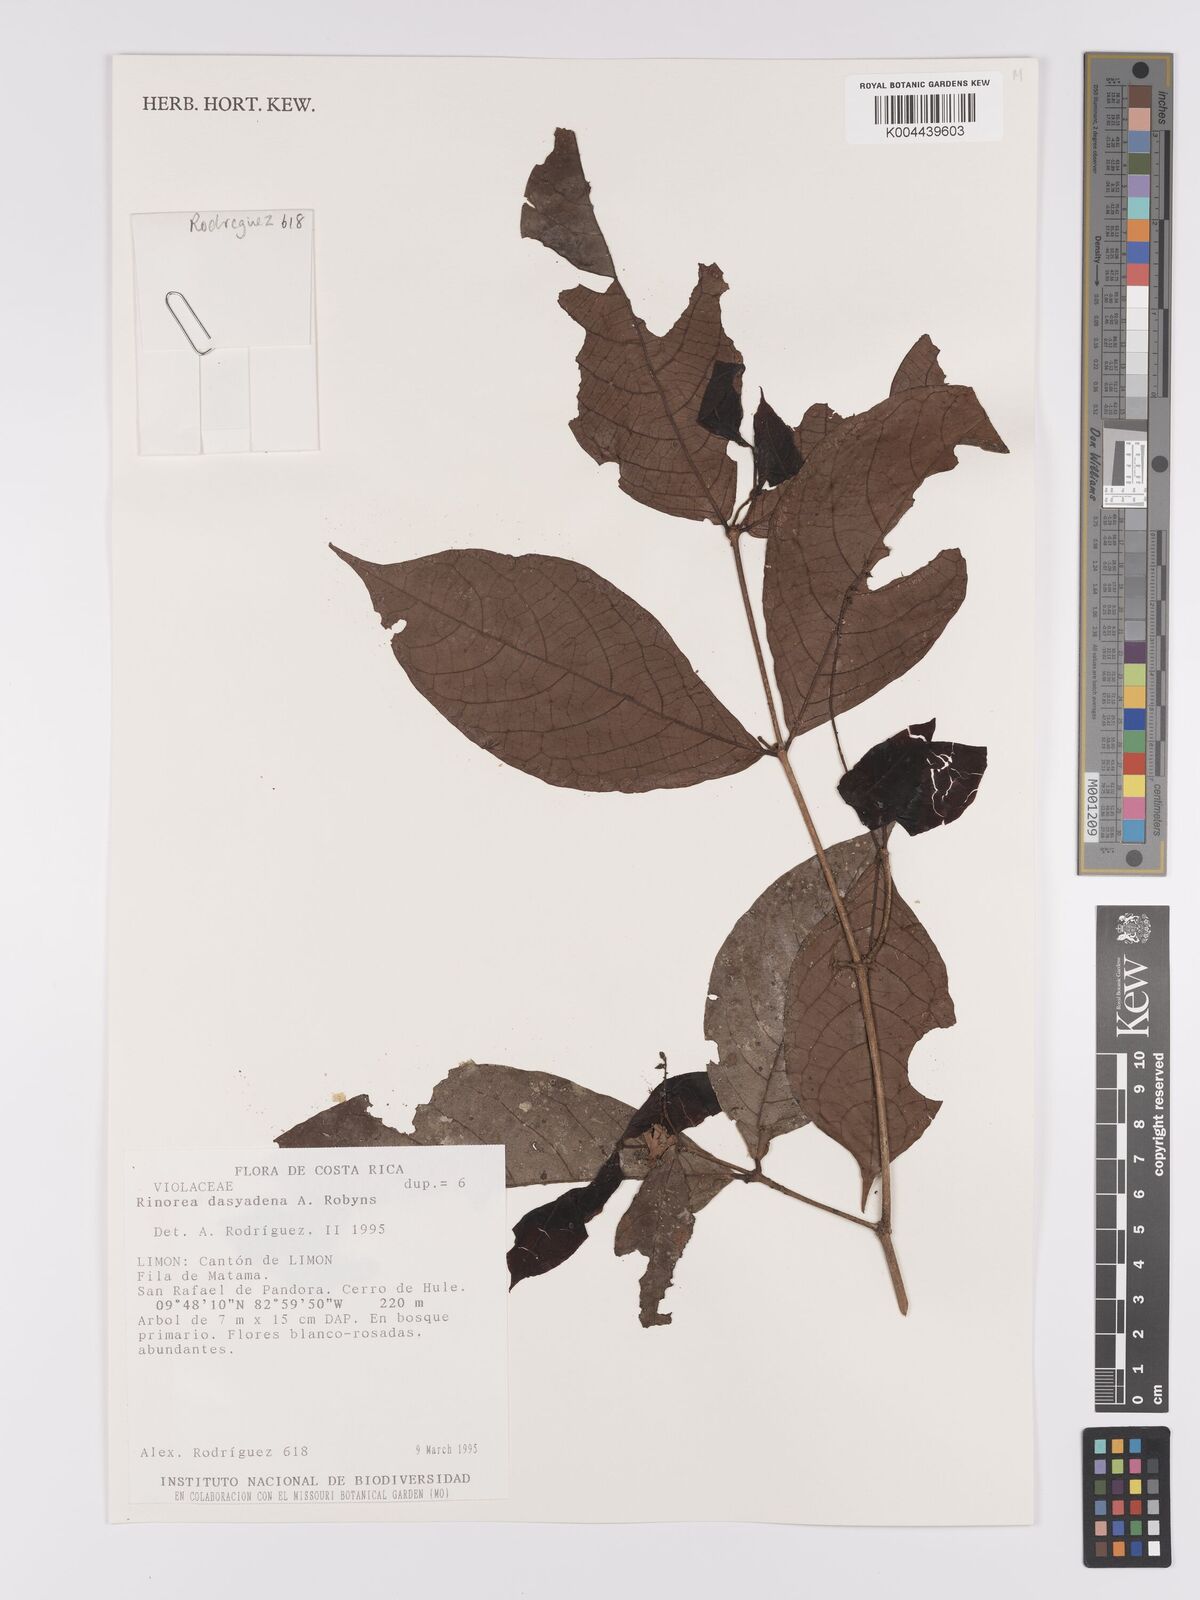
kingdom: Plantae
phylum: Tracheophyta
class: Magnoliopsida
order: Malpighiales
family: Violaceae
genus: Rinorea
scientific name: Rinorea dasyadena
